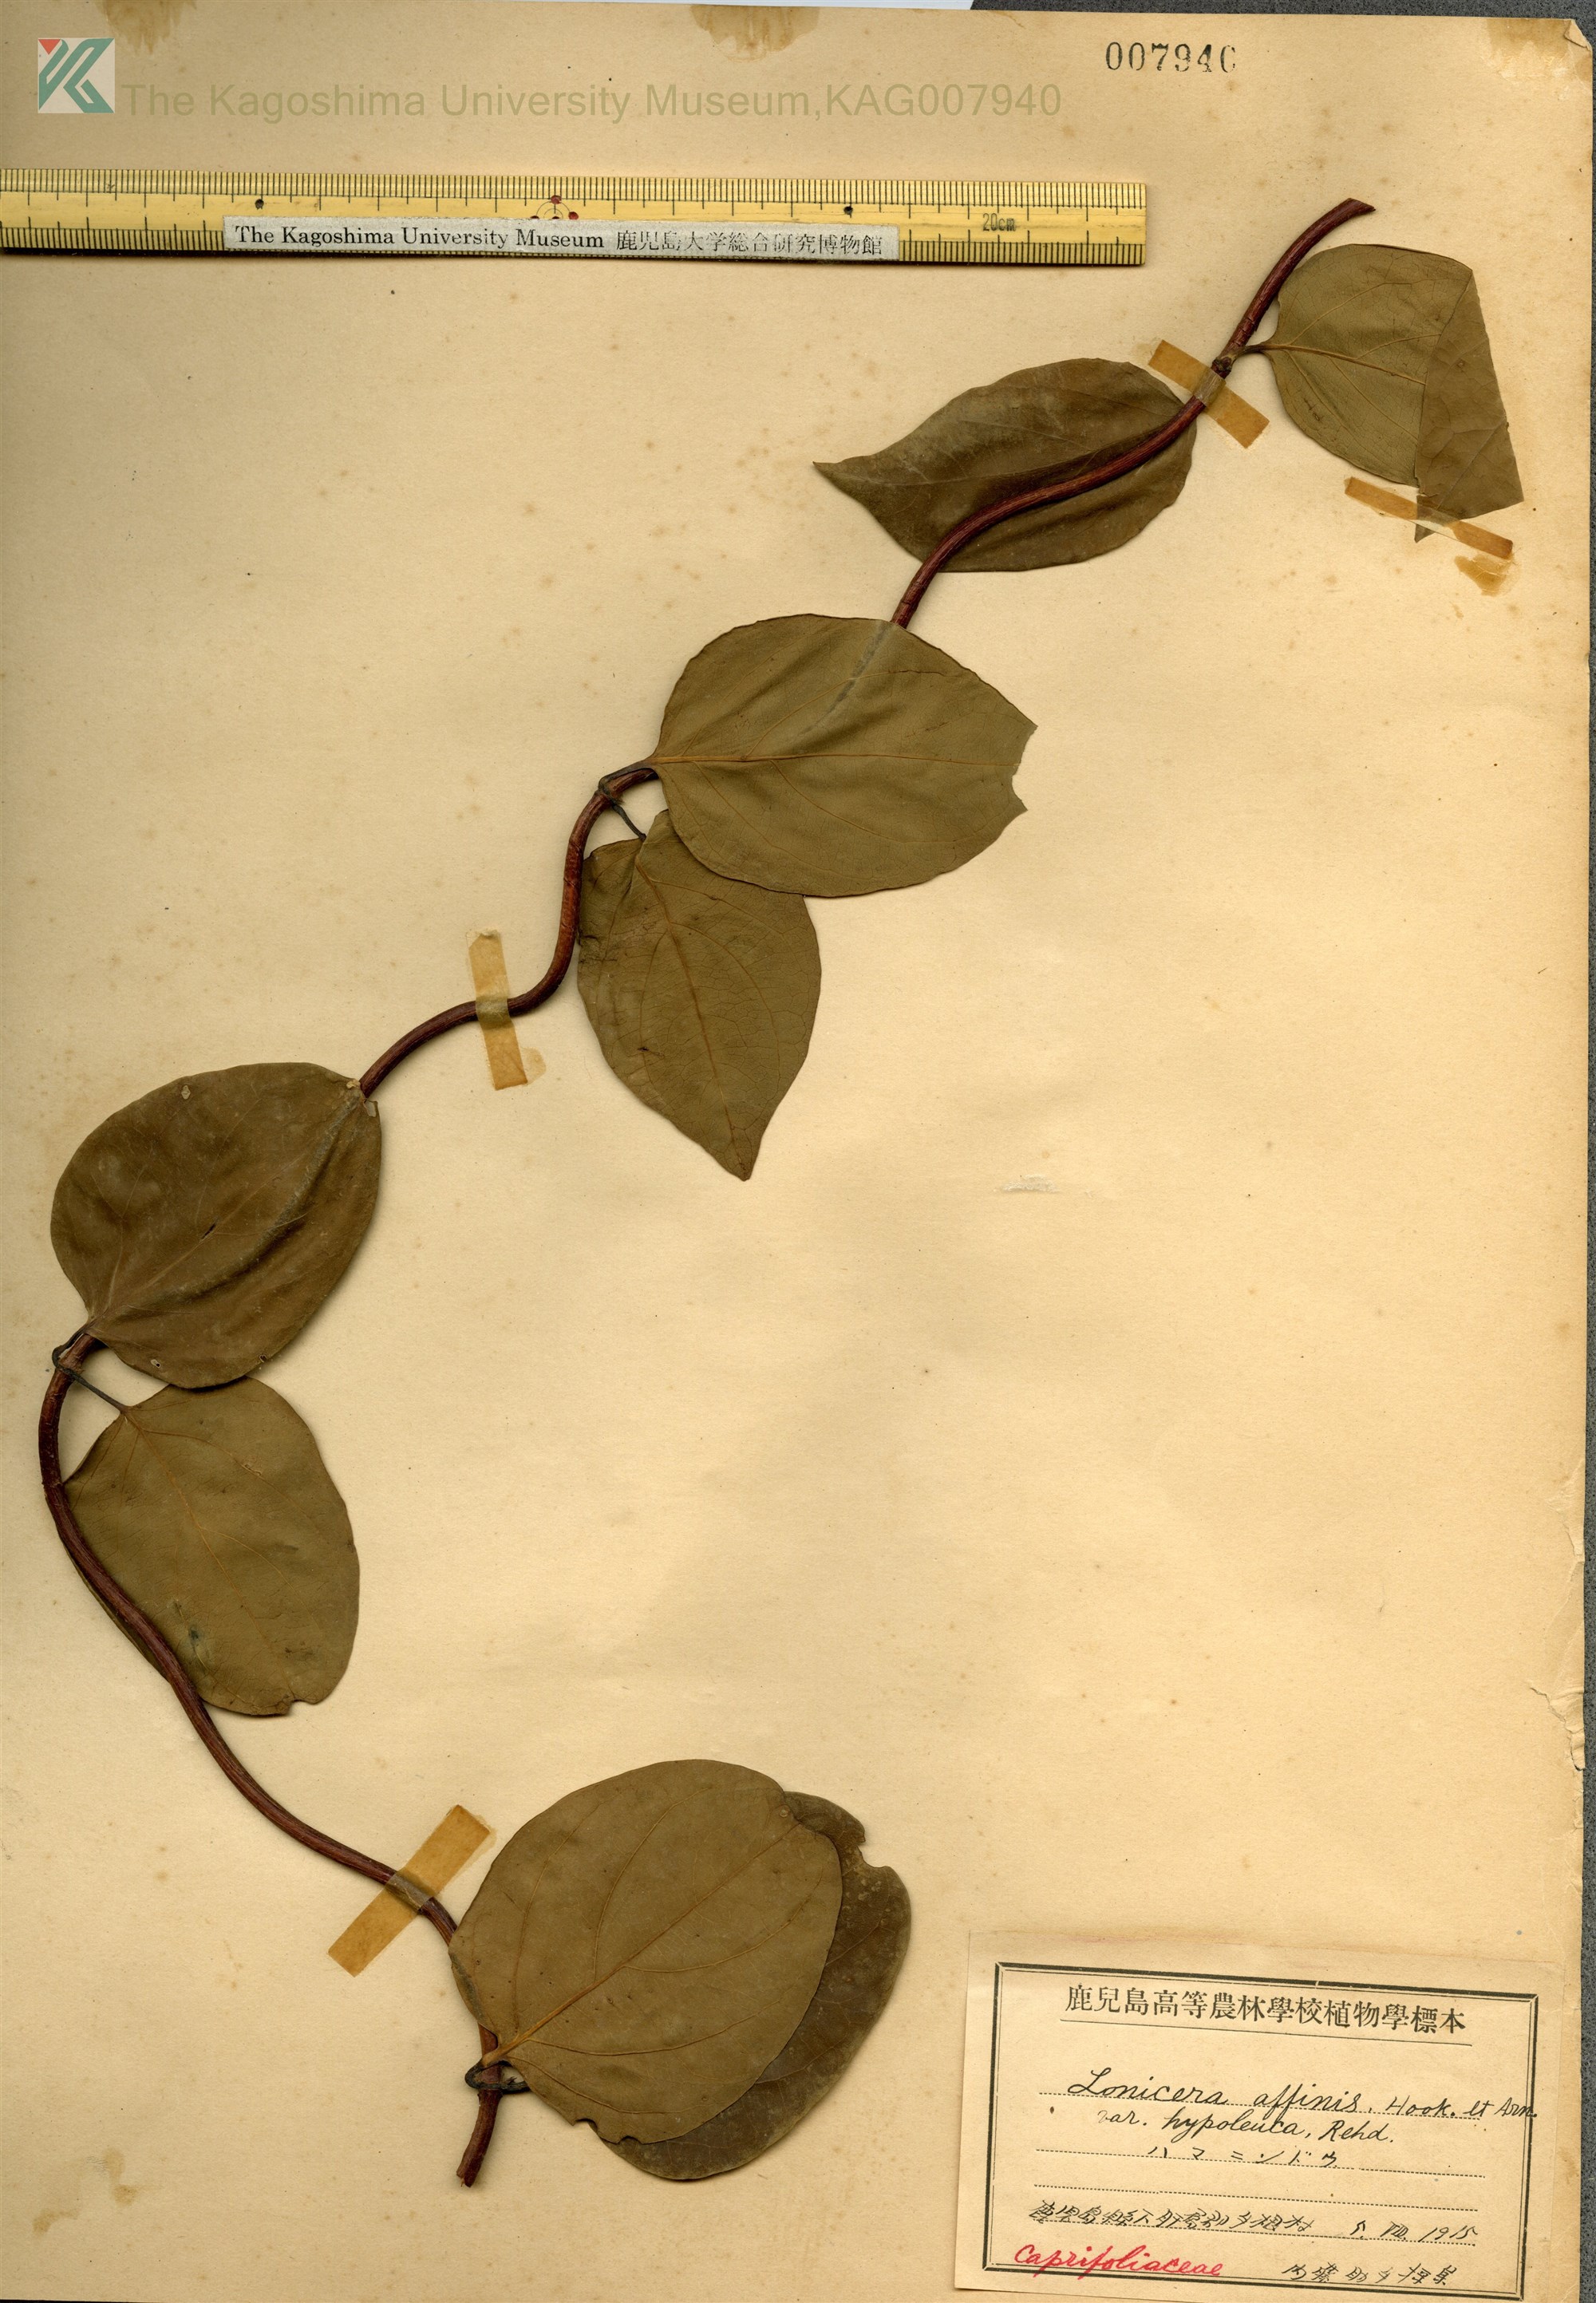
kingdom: Plantae
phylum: Tracheophyta
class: Magnoliopsida
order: Dipsacales
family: Caprifoliaceae
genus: Lonicera
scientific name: Lonicera affinis
